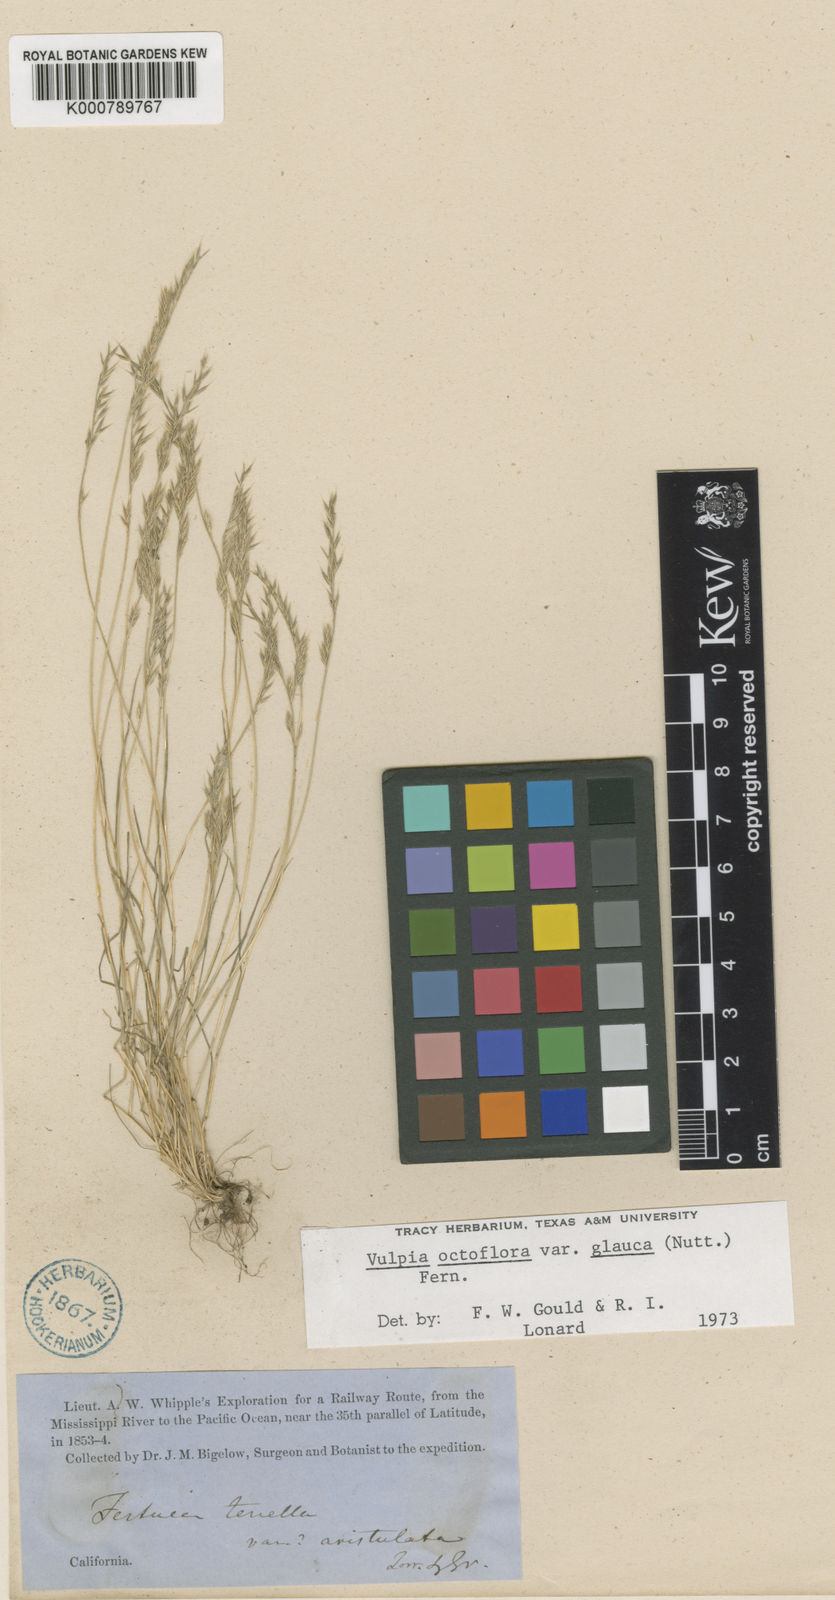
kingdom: Plantae
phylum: Tracheophyta
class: Liliopsida
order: Poales
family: Poaceae
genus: Festuca
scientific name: Festuca octoflora
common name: Sixweeks grass
